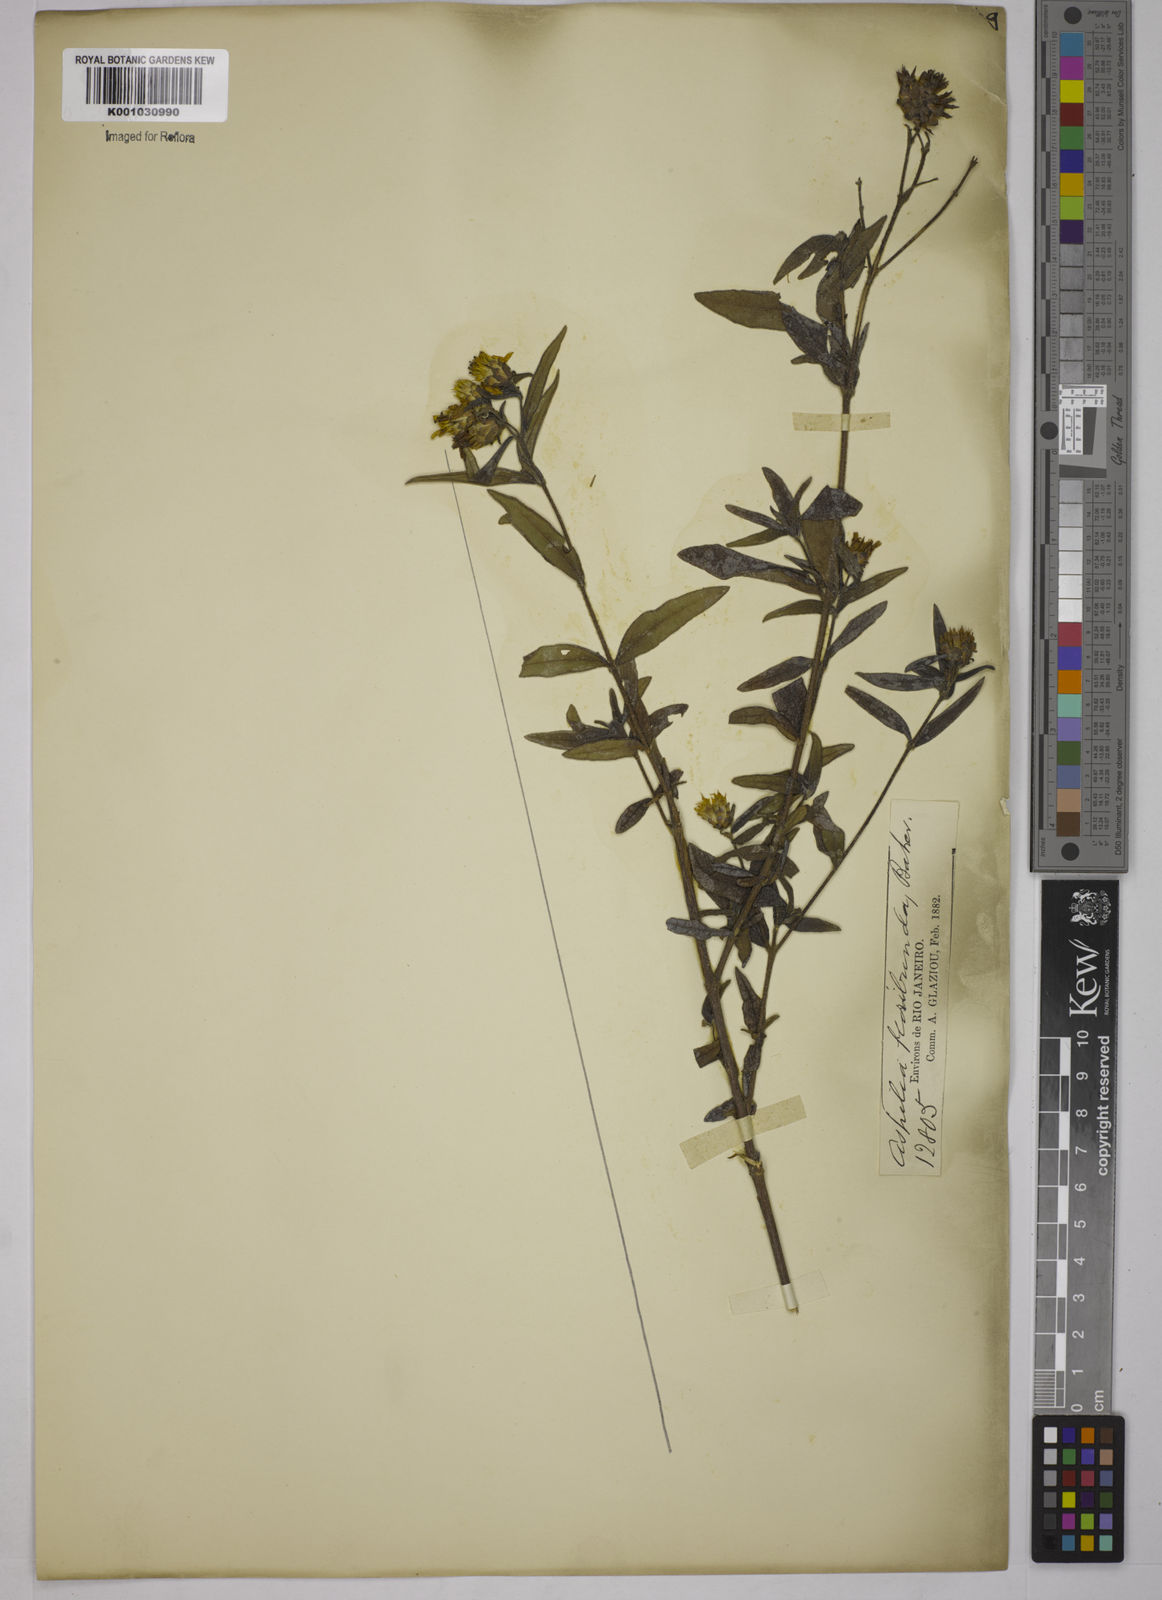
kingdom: Plantae
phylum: Tracheophyta
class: Magnoliopsida
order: Asterales
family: Asteraceae
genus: Wedelia
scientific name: Wedelia floribunda
